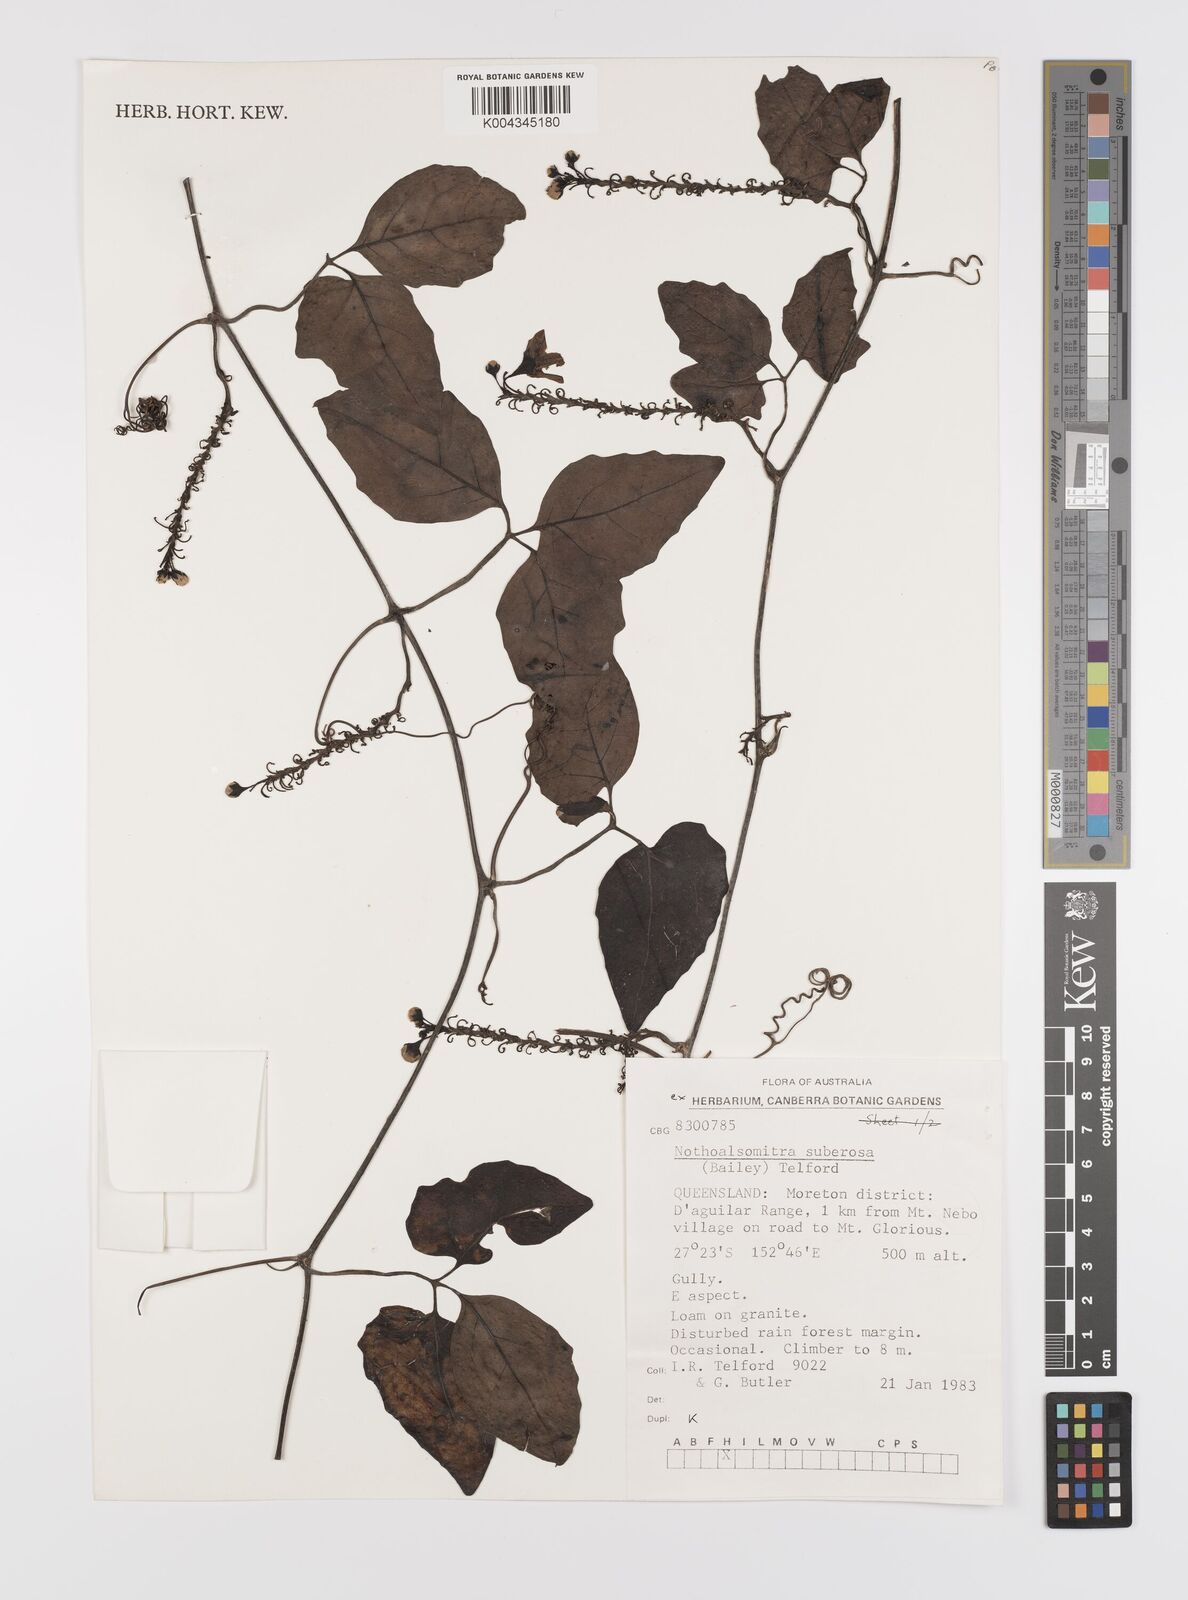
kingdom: Plantae
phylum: Tracheophyta
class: Magnoliopsida
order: Cucurbitales
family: Cucurbitaceae
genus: Nothoalsomitra
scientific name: Nothoalsomitra suberosa
